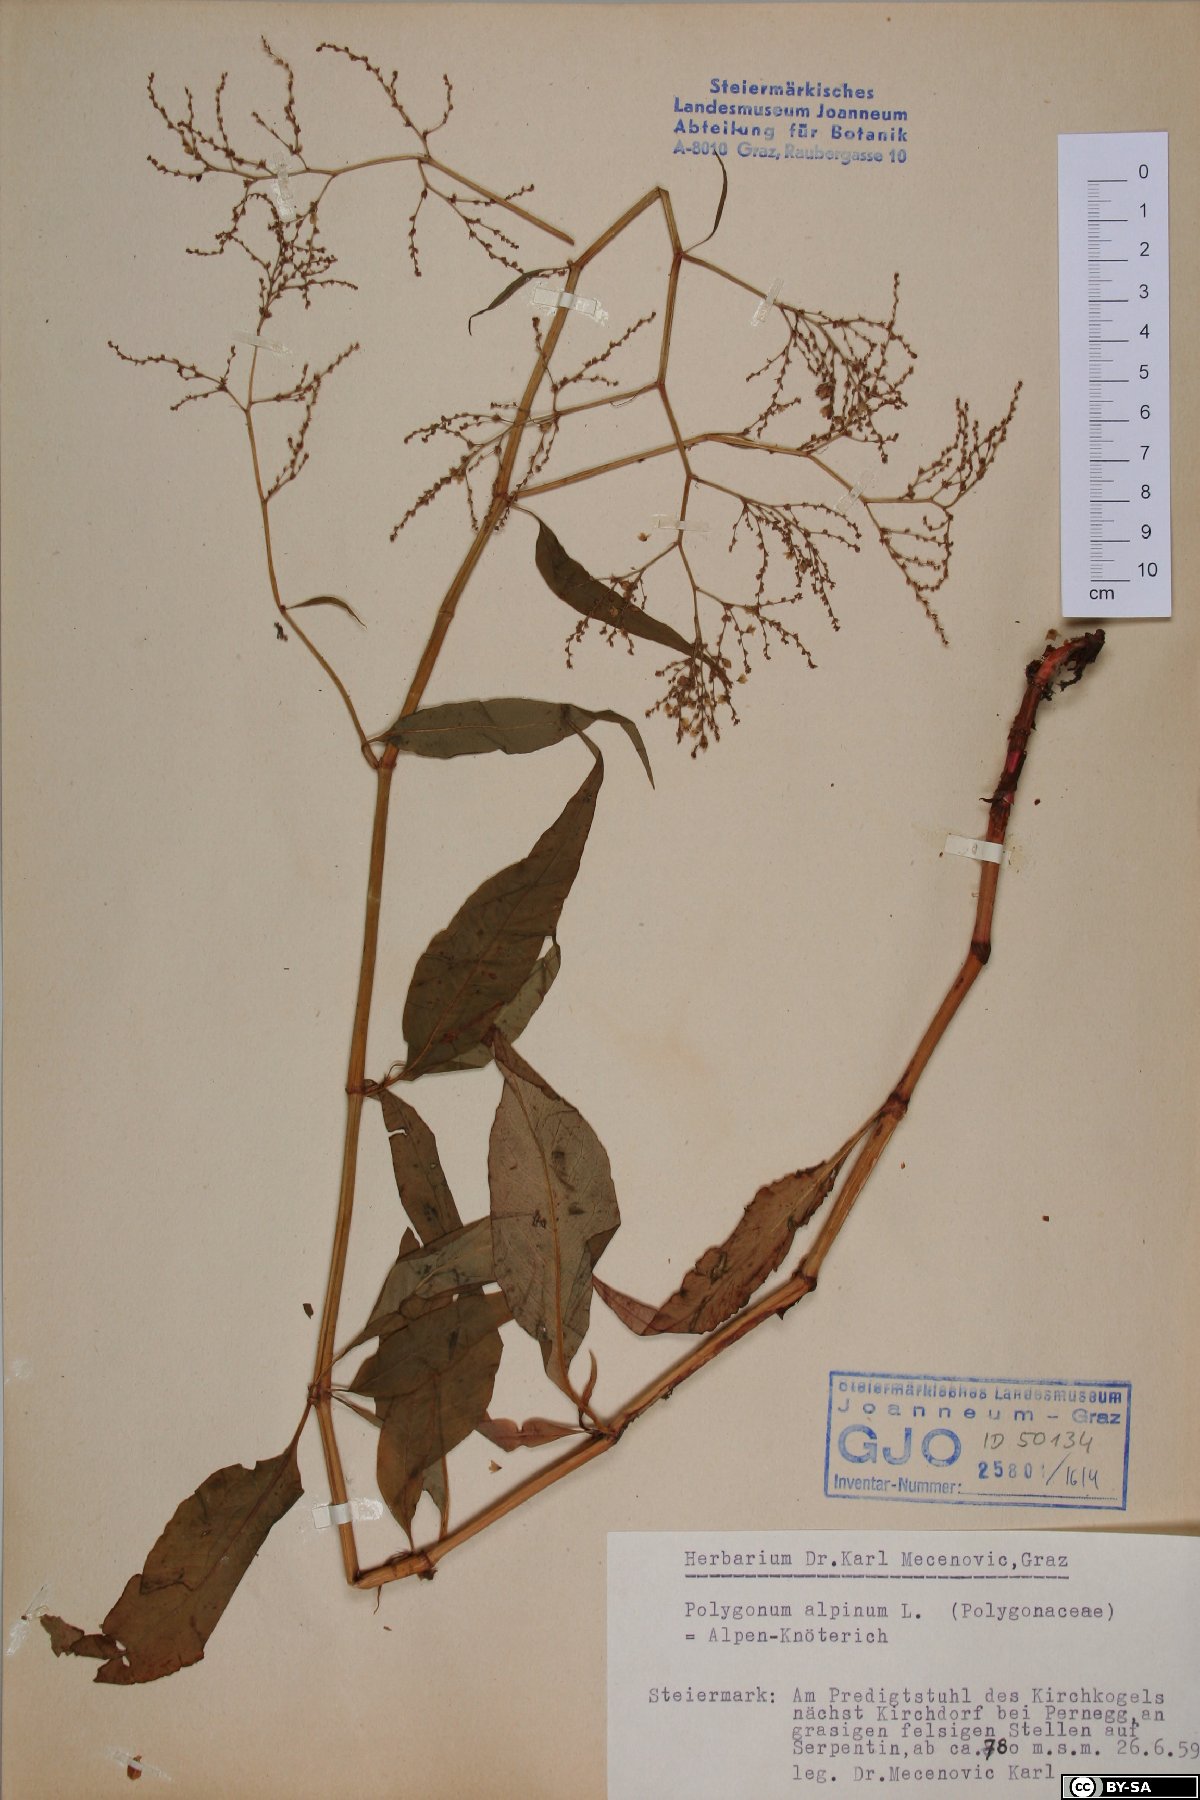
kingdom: Plantae
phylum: Tracheophyta
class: Magnoliopsida
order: Caryophyllales
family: Polygonaceae
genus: Koenigia
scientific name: Koenigia alpina
